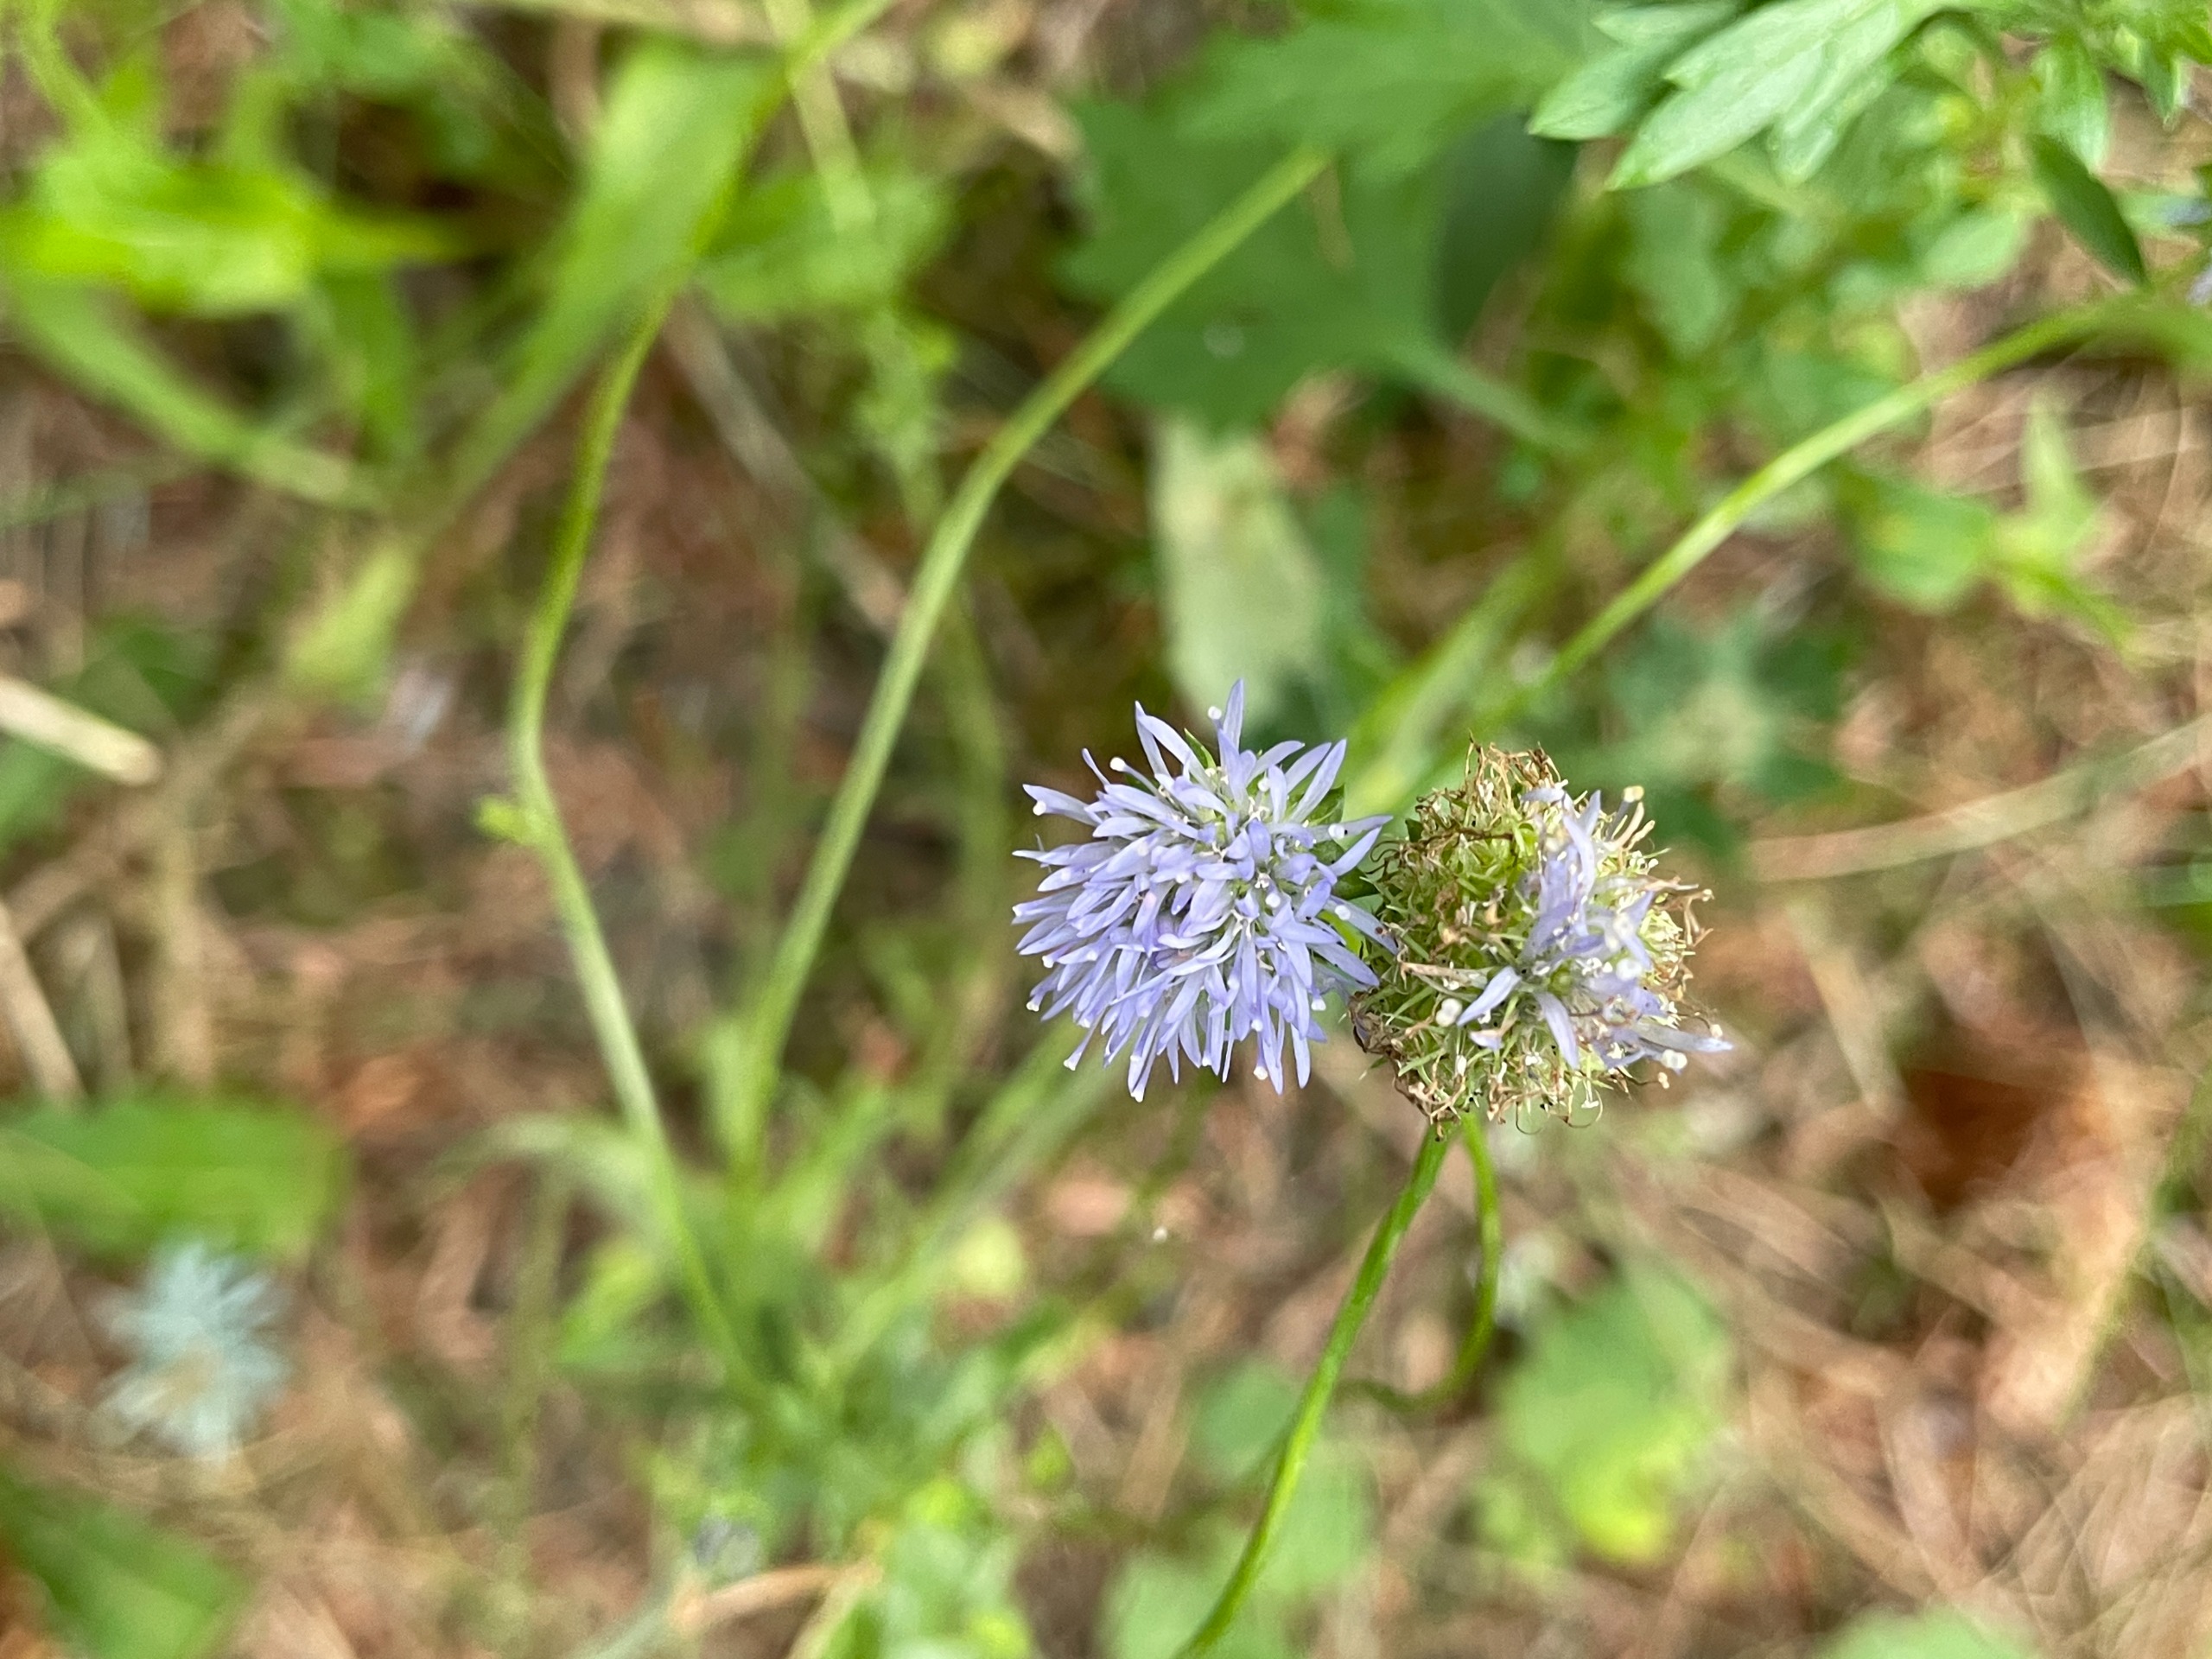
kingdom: Plantae
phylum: Tracheophyta
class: Magnoliopsida
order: Asterales
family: Campanulaceae
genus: Jasione
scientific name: Jasione montana
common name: Blåmunke
